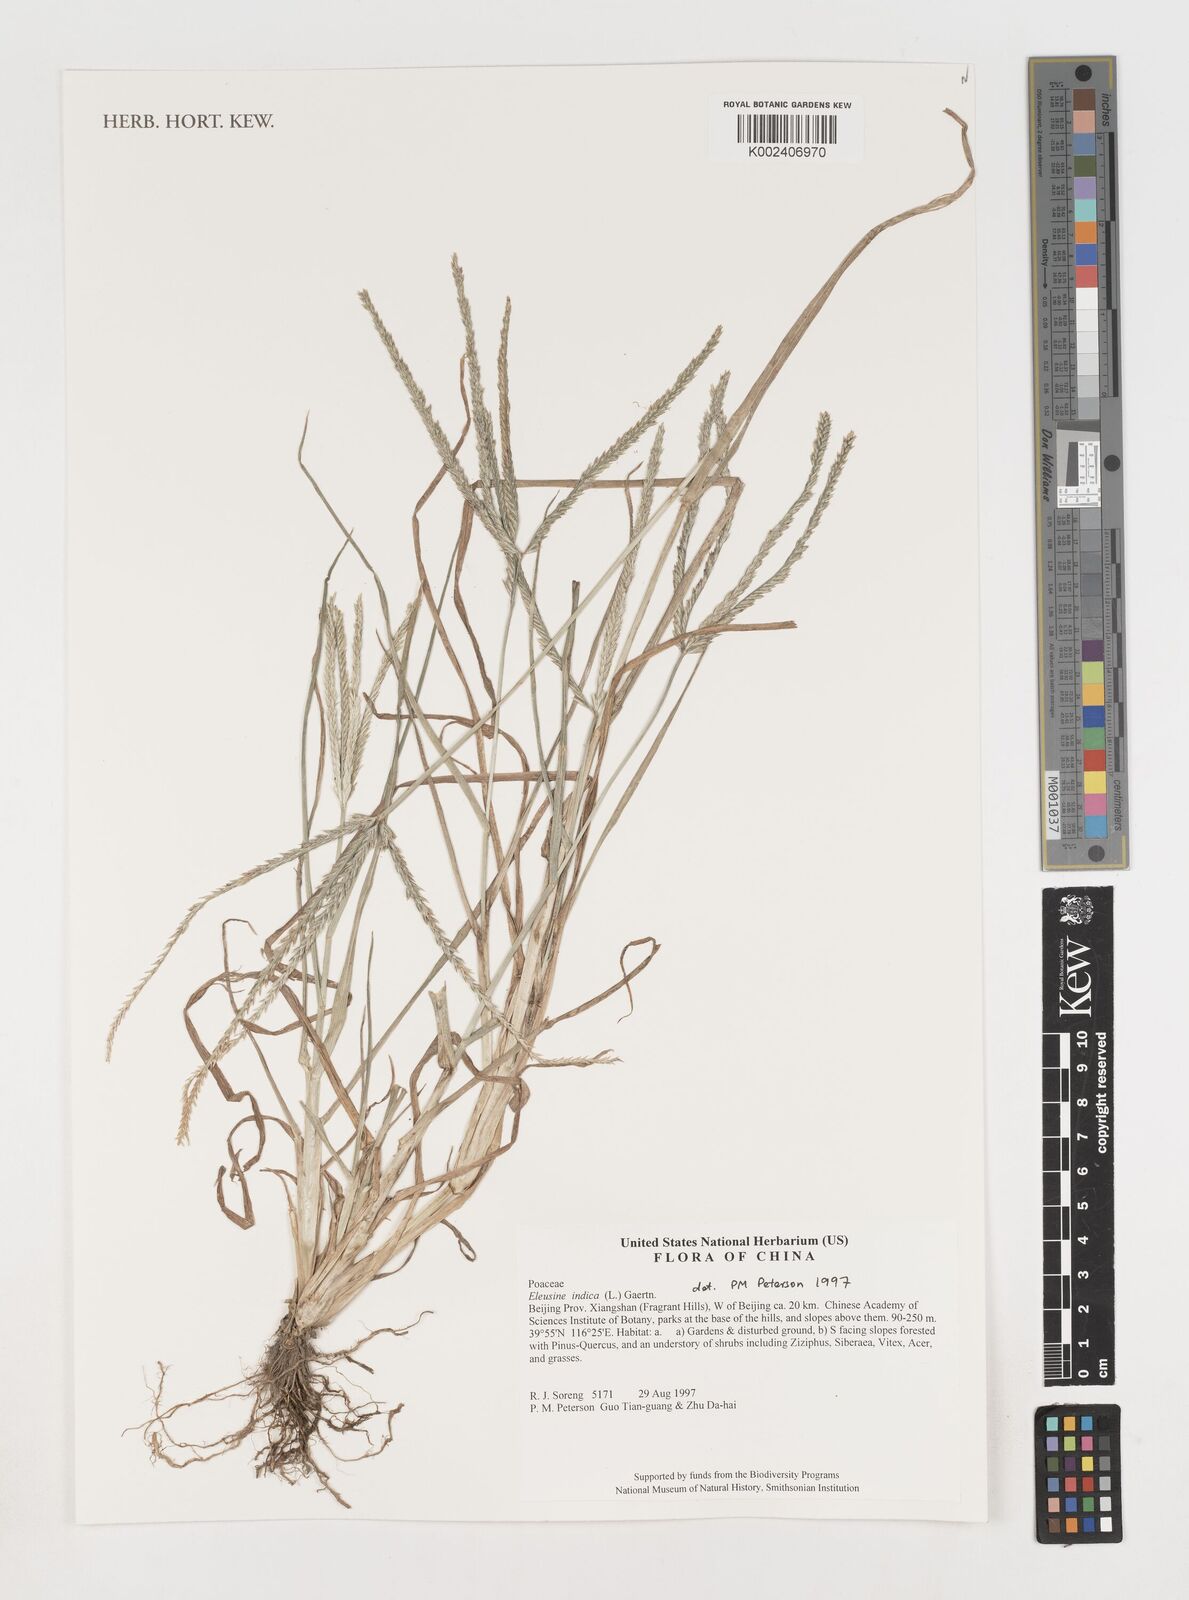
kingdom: Plantae
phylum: Tracheophyta
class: Liliopsida
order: Poales
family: Poaceae
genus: Eleusine
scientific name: Eleusine indica
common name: Yard-grass
